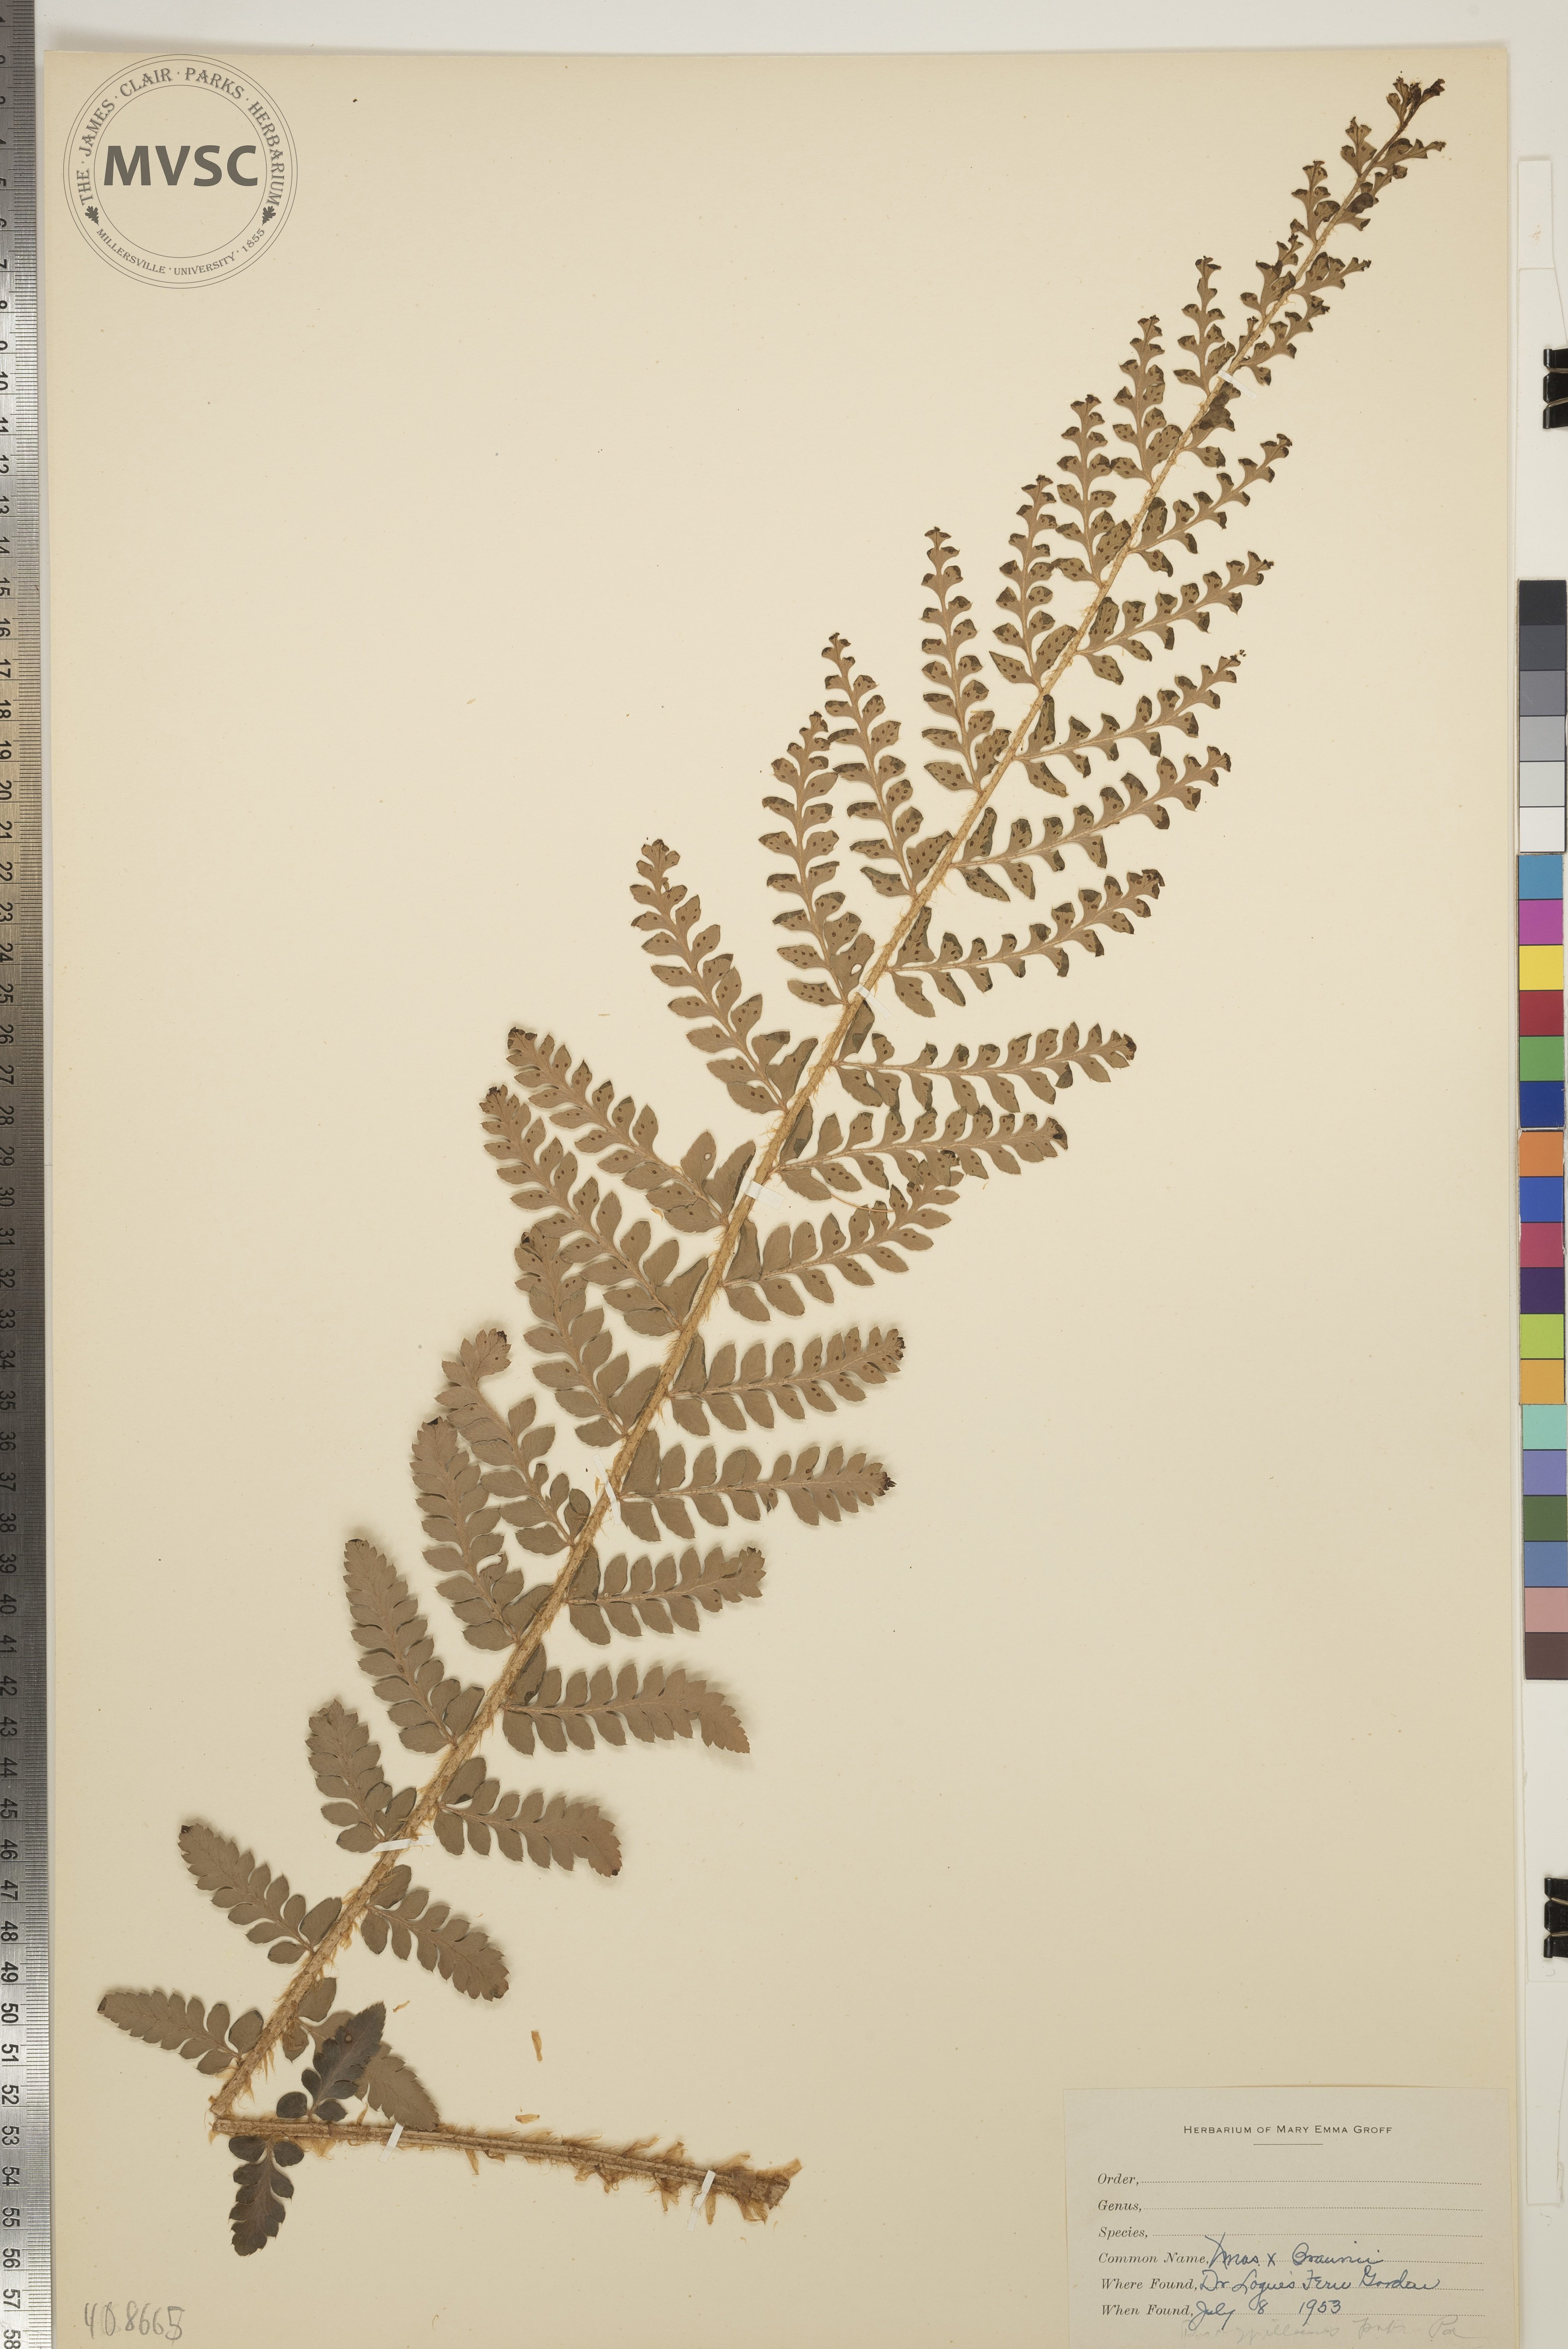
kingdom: Plantae
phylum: Tracheophyta
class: Polypodiopsida
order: Polypodiales
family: Dryopteridaceae
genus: Polystichum
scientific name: Polystichum
